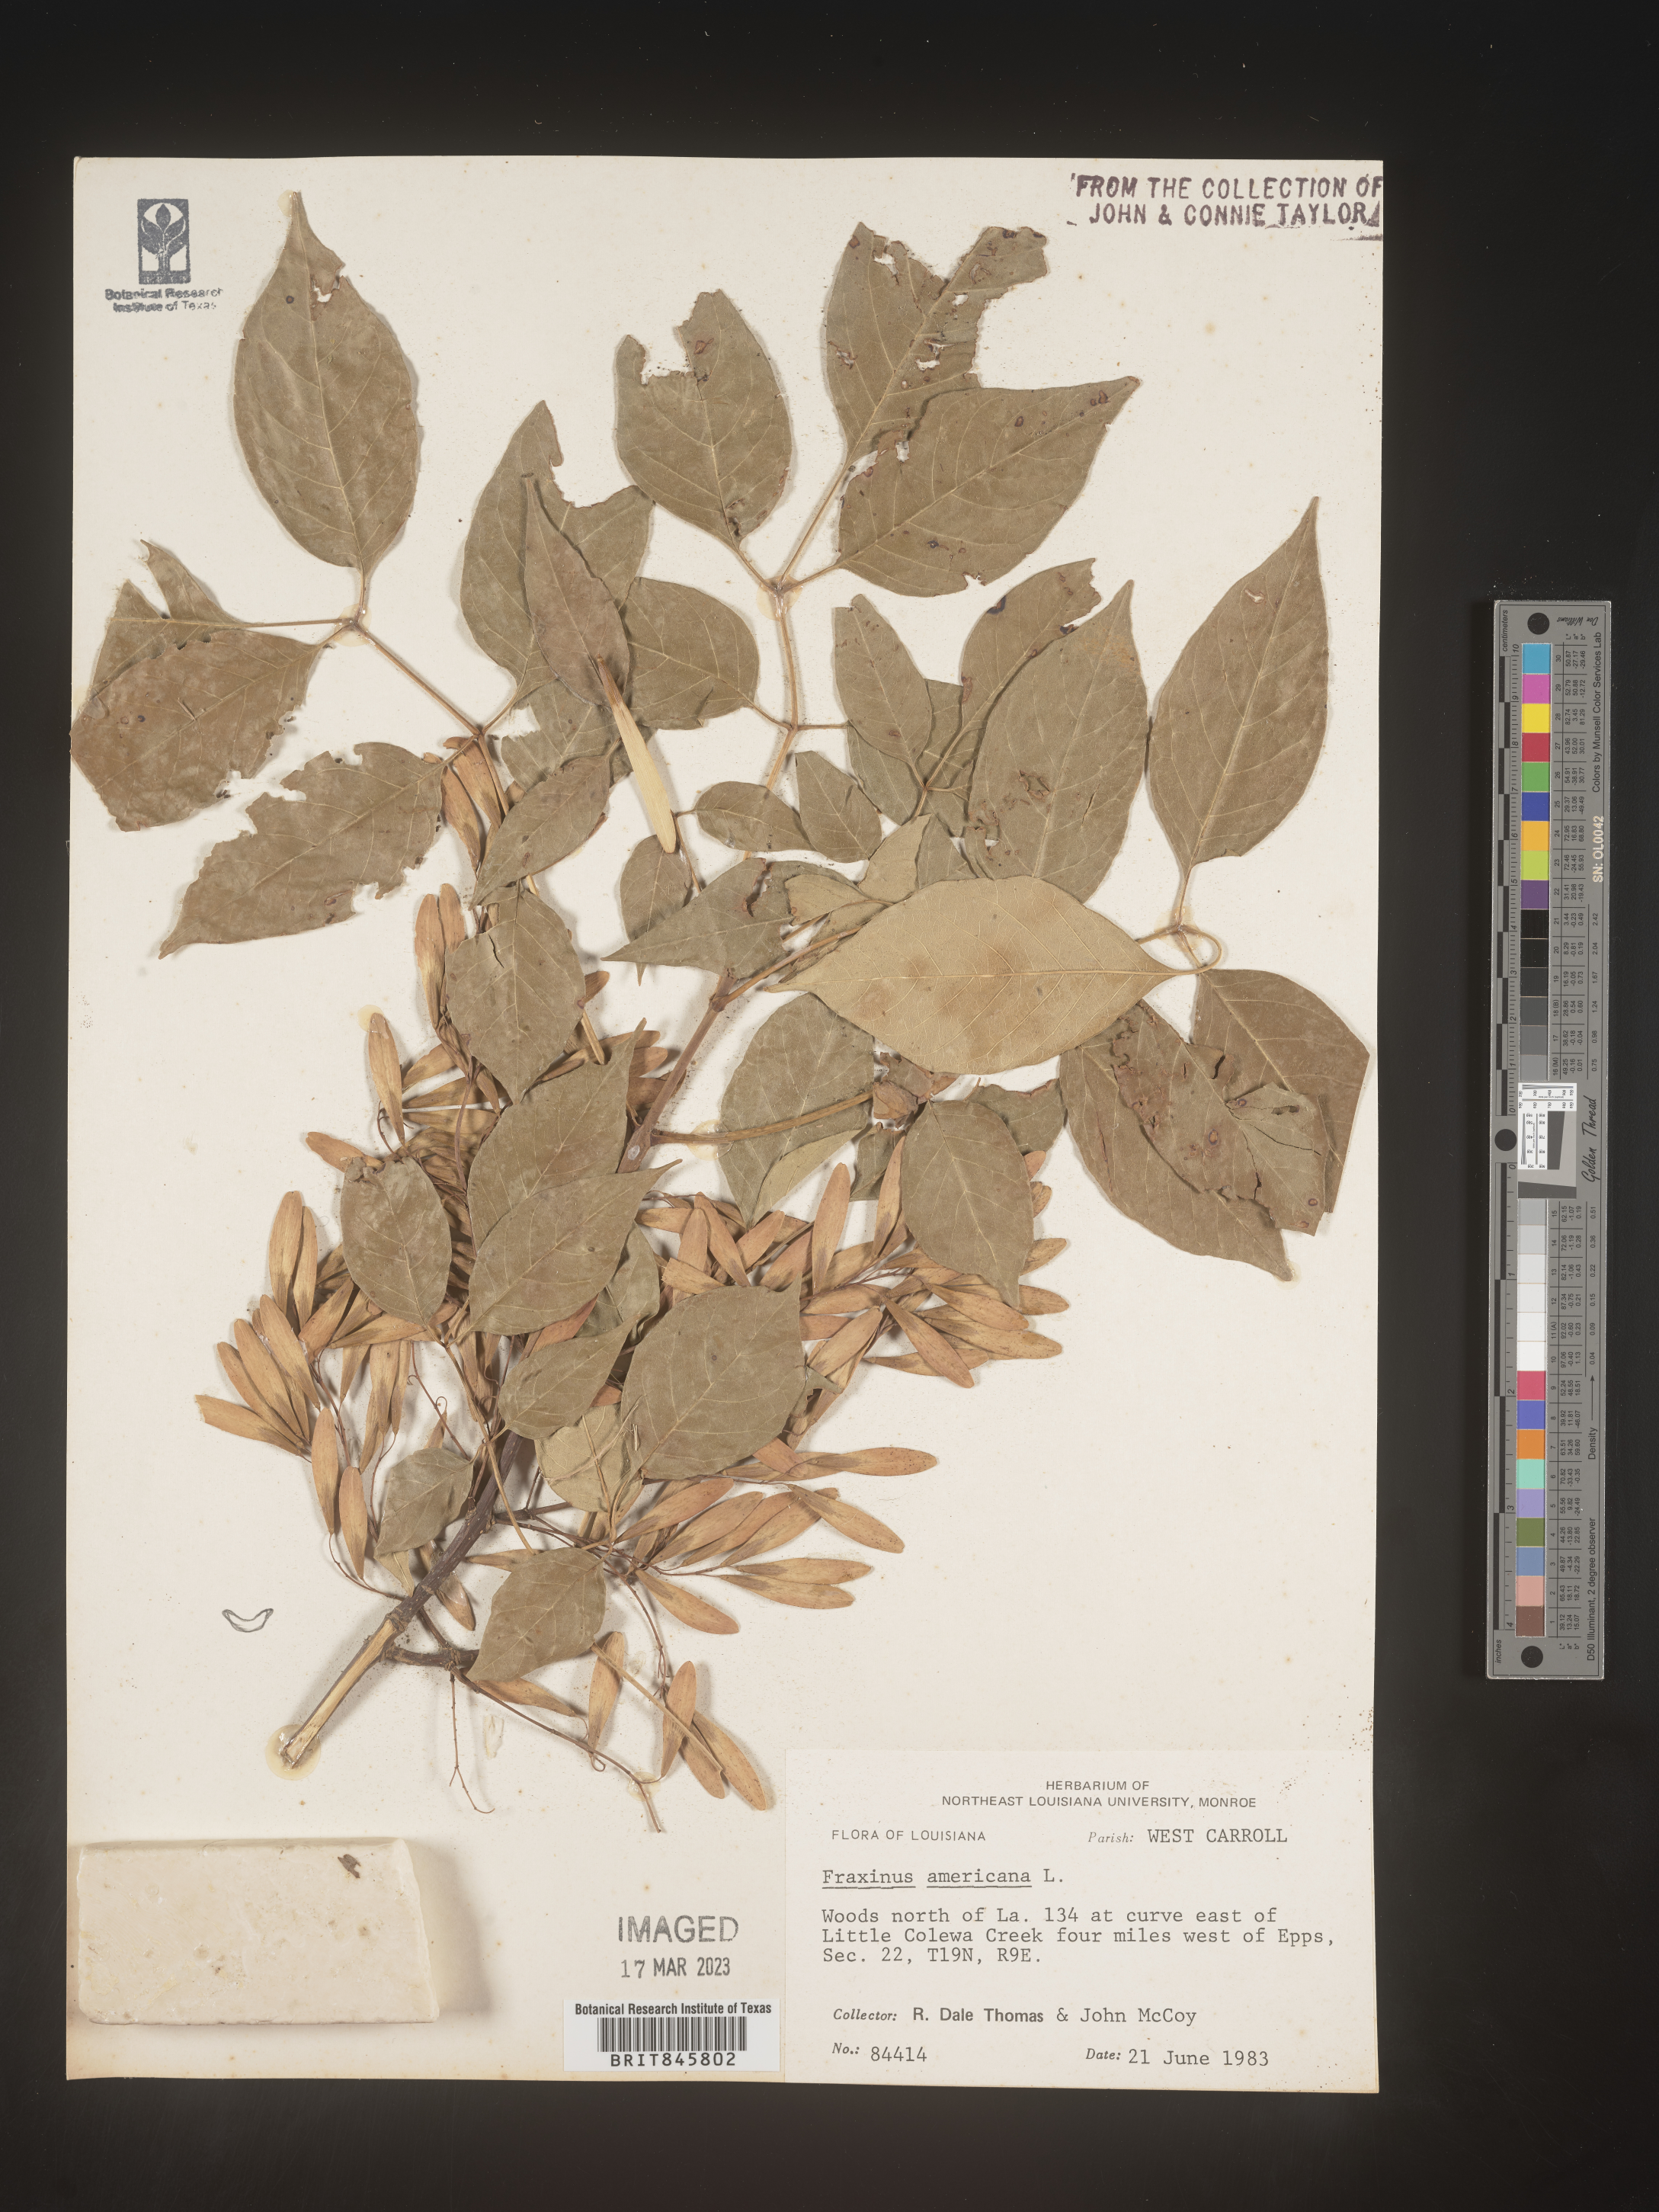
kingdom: Plantae
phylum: Tracheophyta
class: Magnoliopsida
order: Lamiales
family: Oleaceae
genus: Fraxinus
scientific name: Fraxinus americana
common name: White ash
